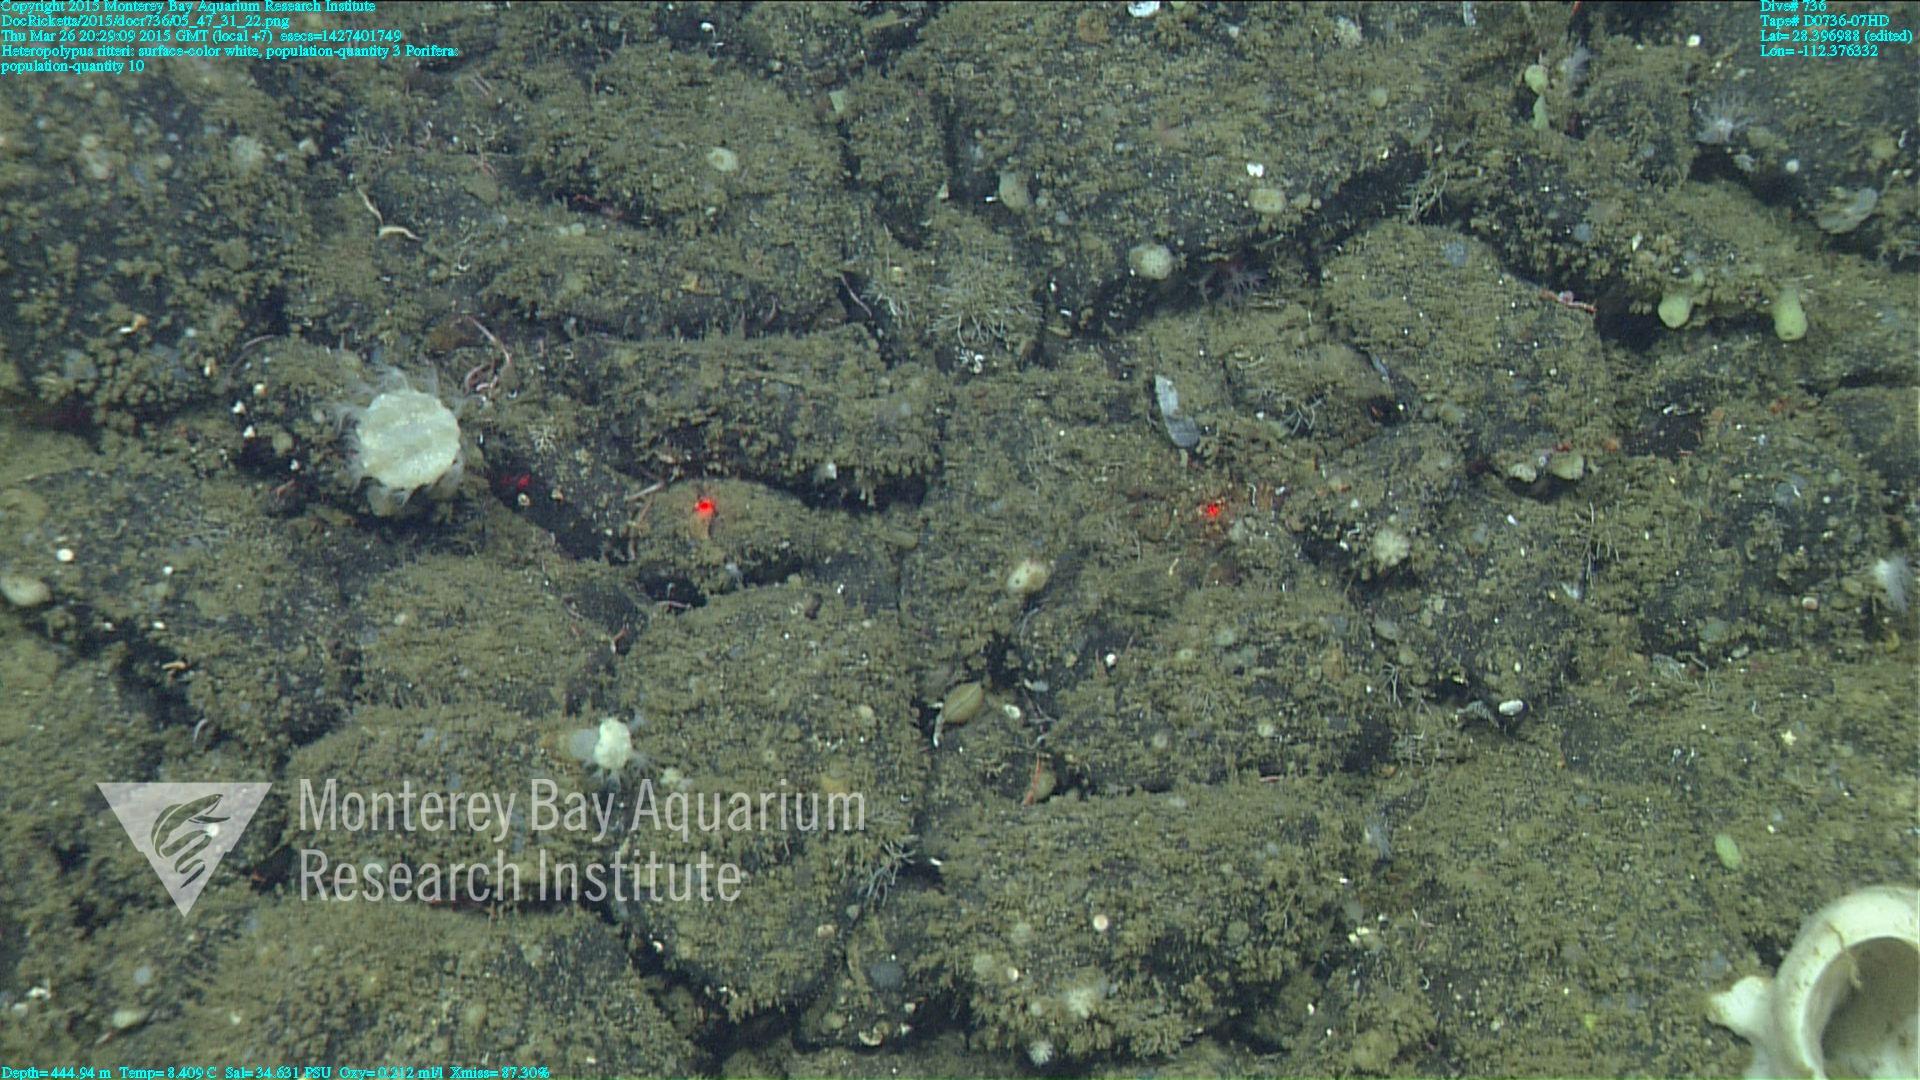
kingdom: Animalia
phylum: Cnidaria
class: Anthozoa
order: Scleralcyonacea
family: Coralliidae
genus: Heteropolypus
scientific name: Heteropolypus ritteri
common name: Ritter's soft coral
